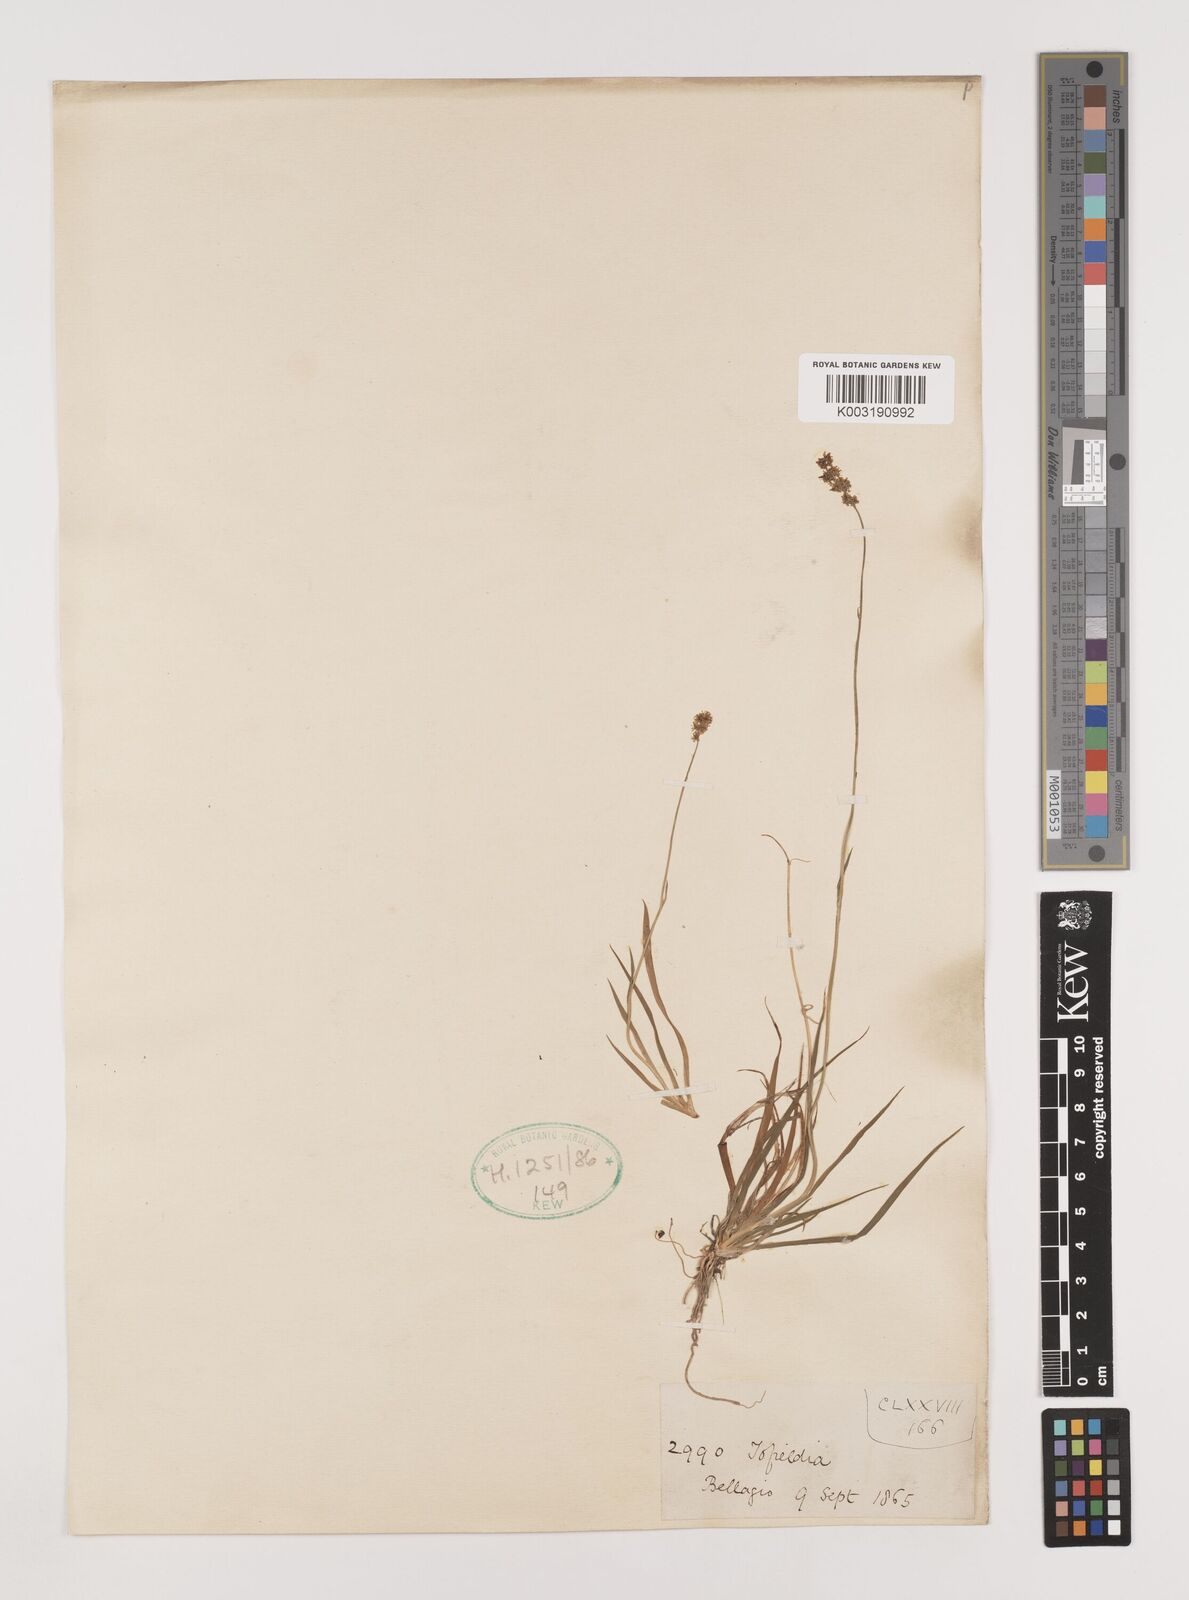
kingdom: Plantae
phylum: Tracheophyta
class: Liliopsida
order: Alismatales
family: Tofieldiaceae
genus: Tofieldia
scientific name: Tofieldia calyculata
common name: German-asphodel
